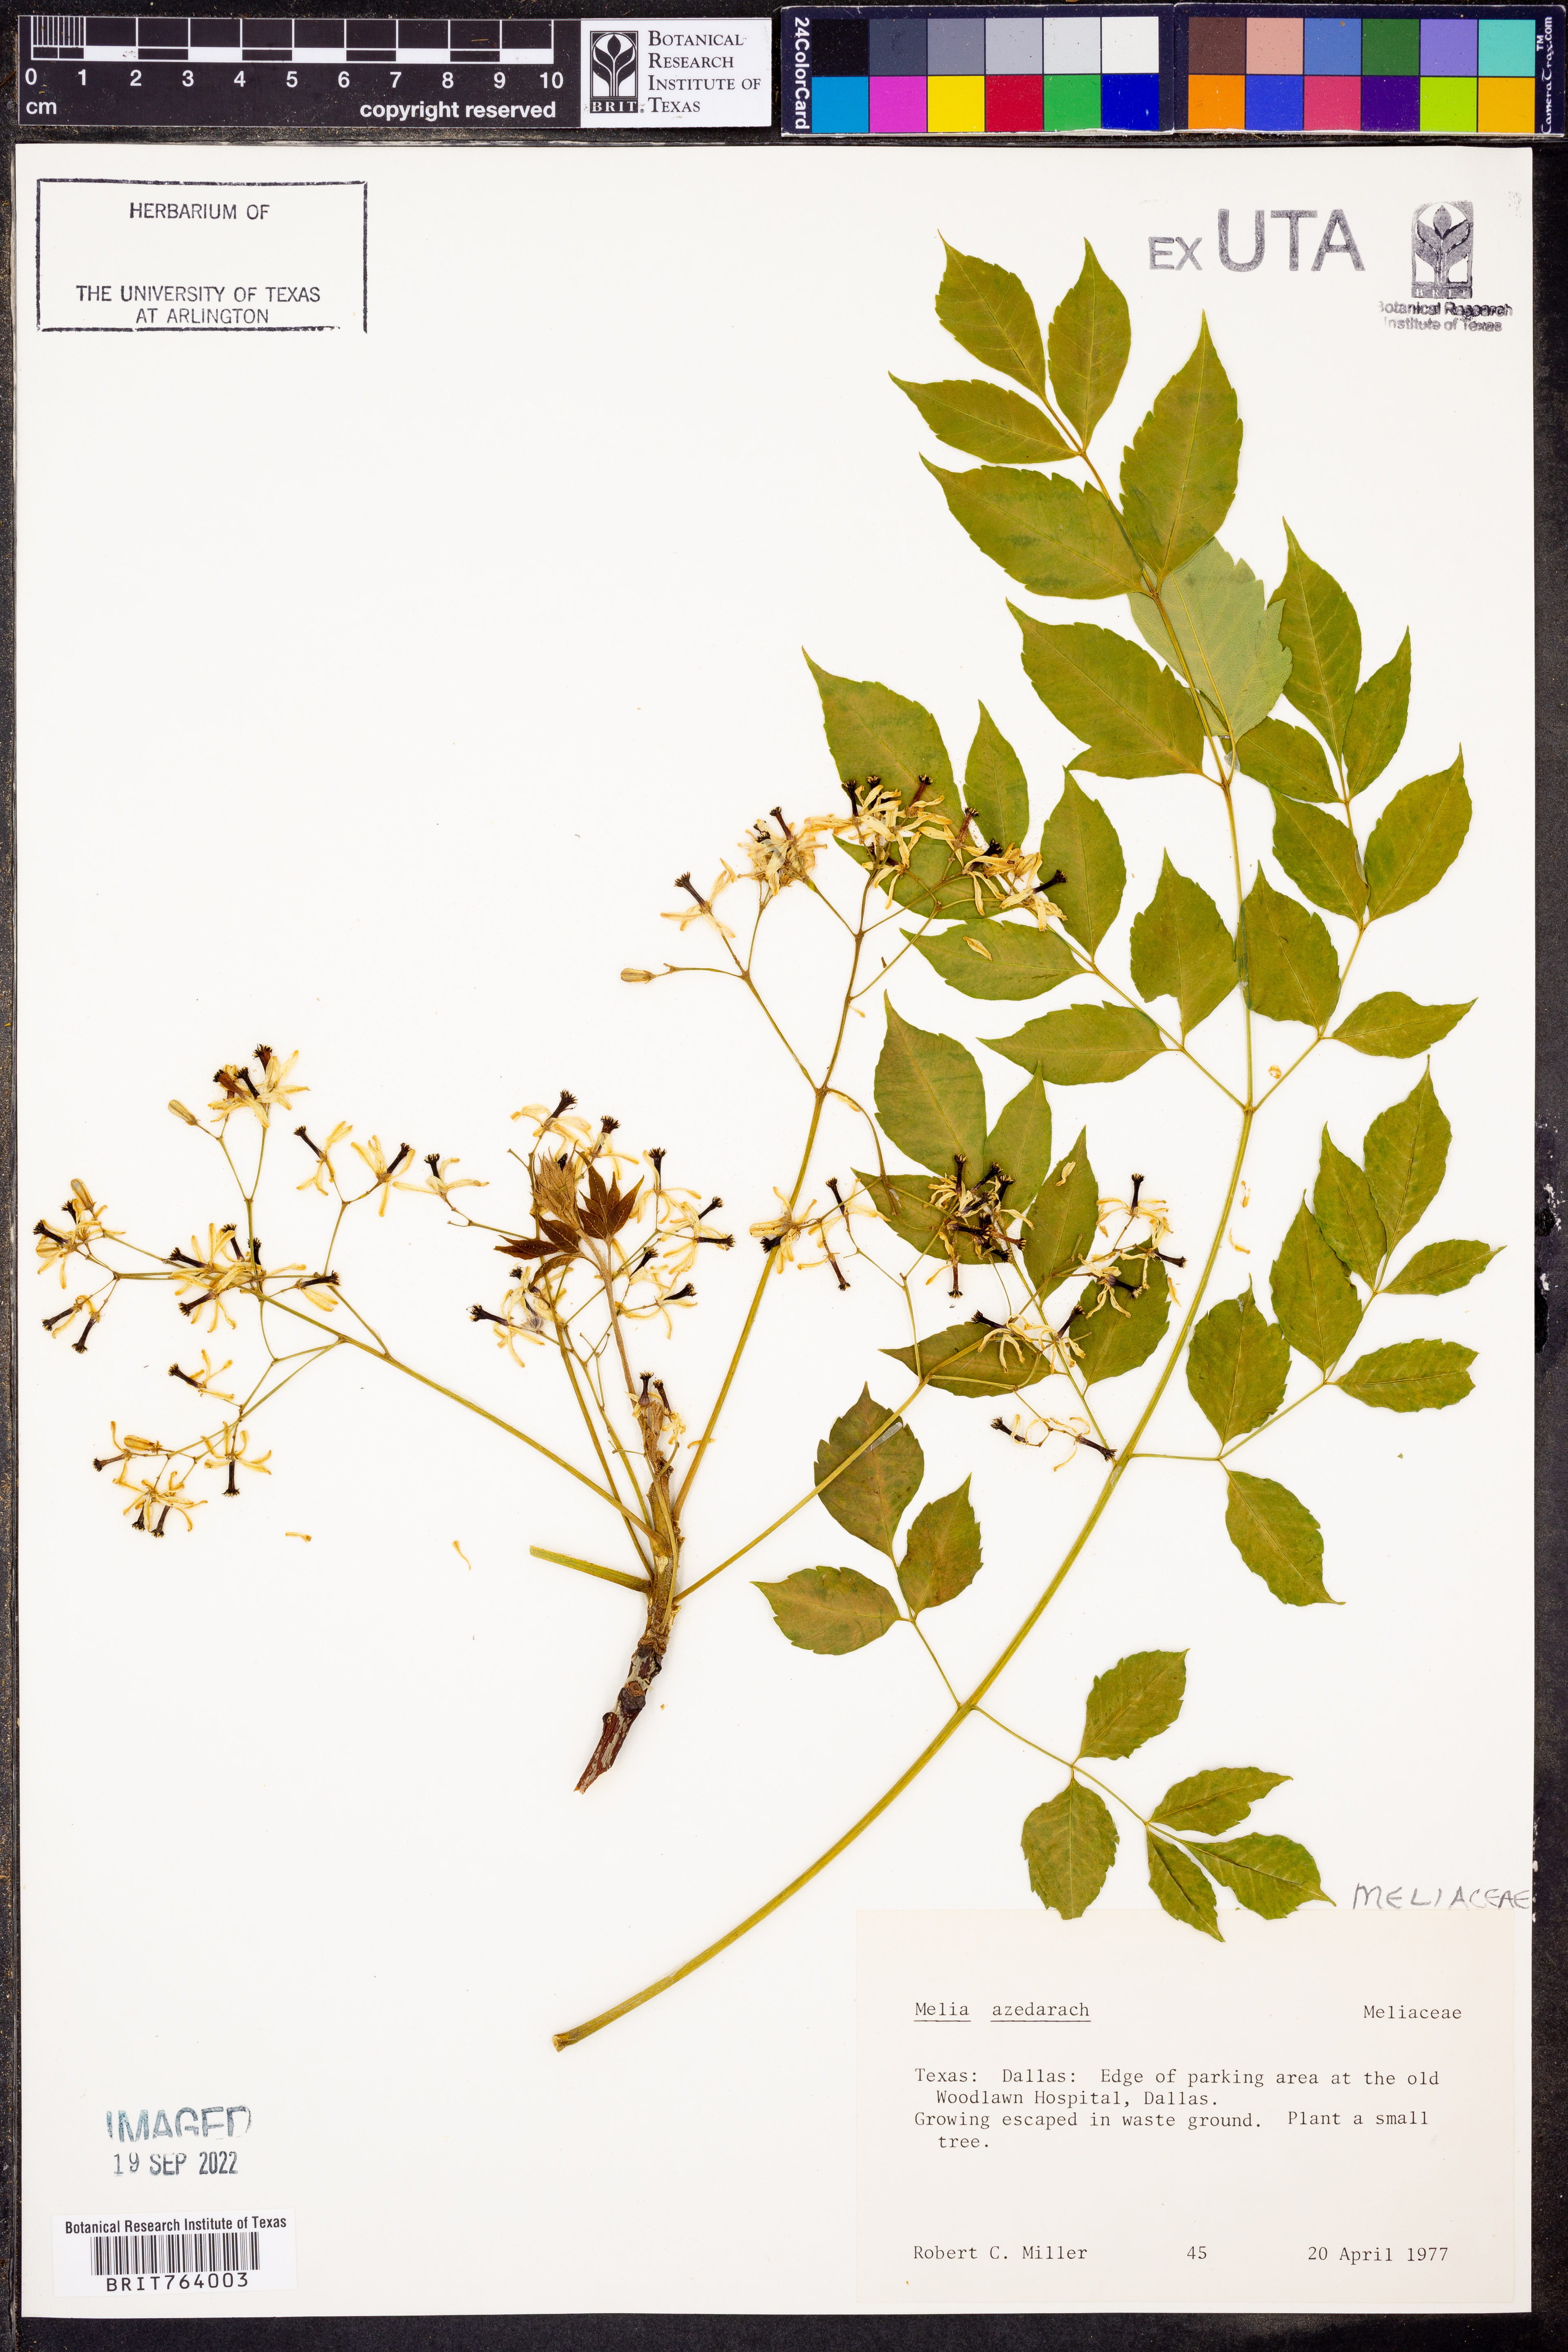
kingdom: Plantae
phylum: Tracheophyta
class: Magnoliopsida
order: Sapindales
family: Meliaceae
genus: Melia
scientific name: Melia azedarach
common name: Chinaberrytree
